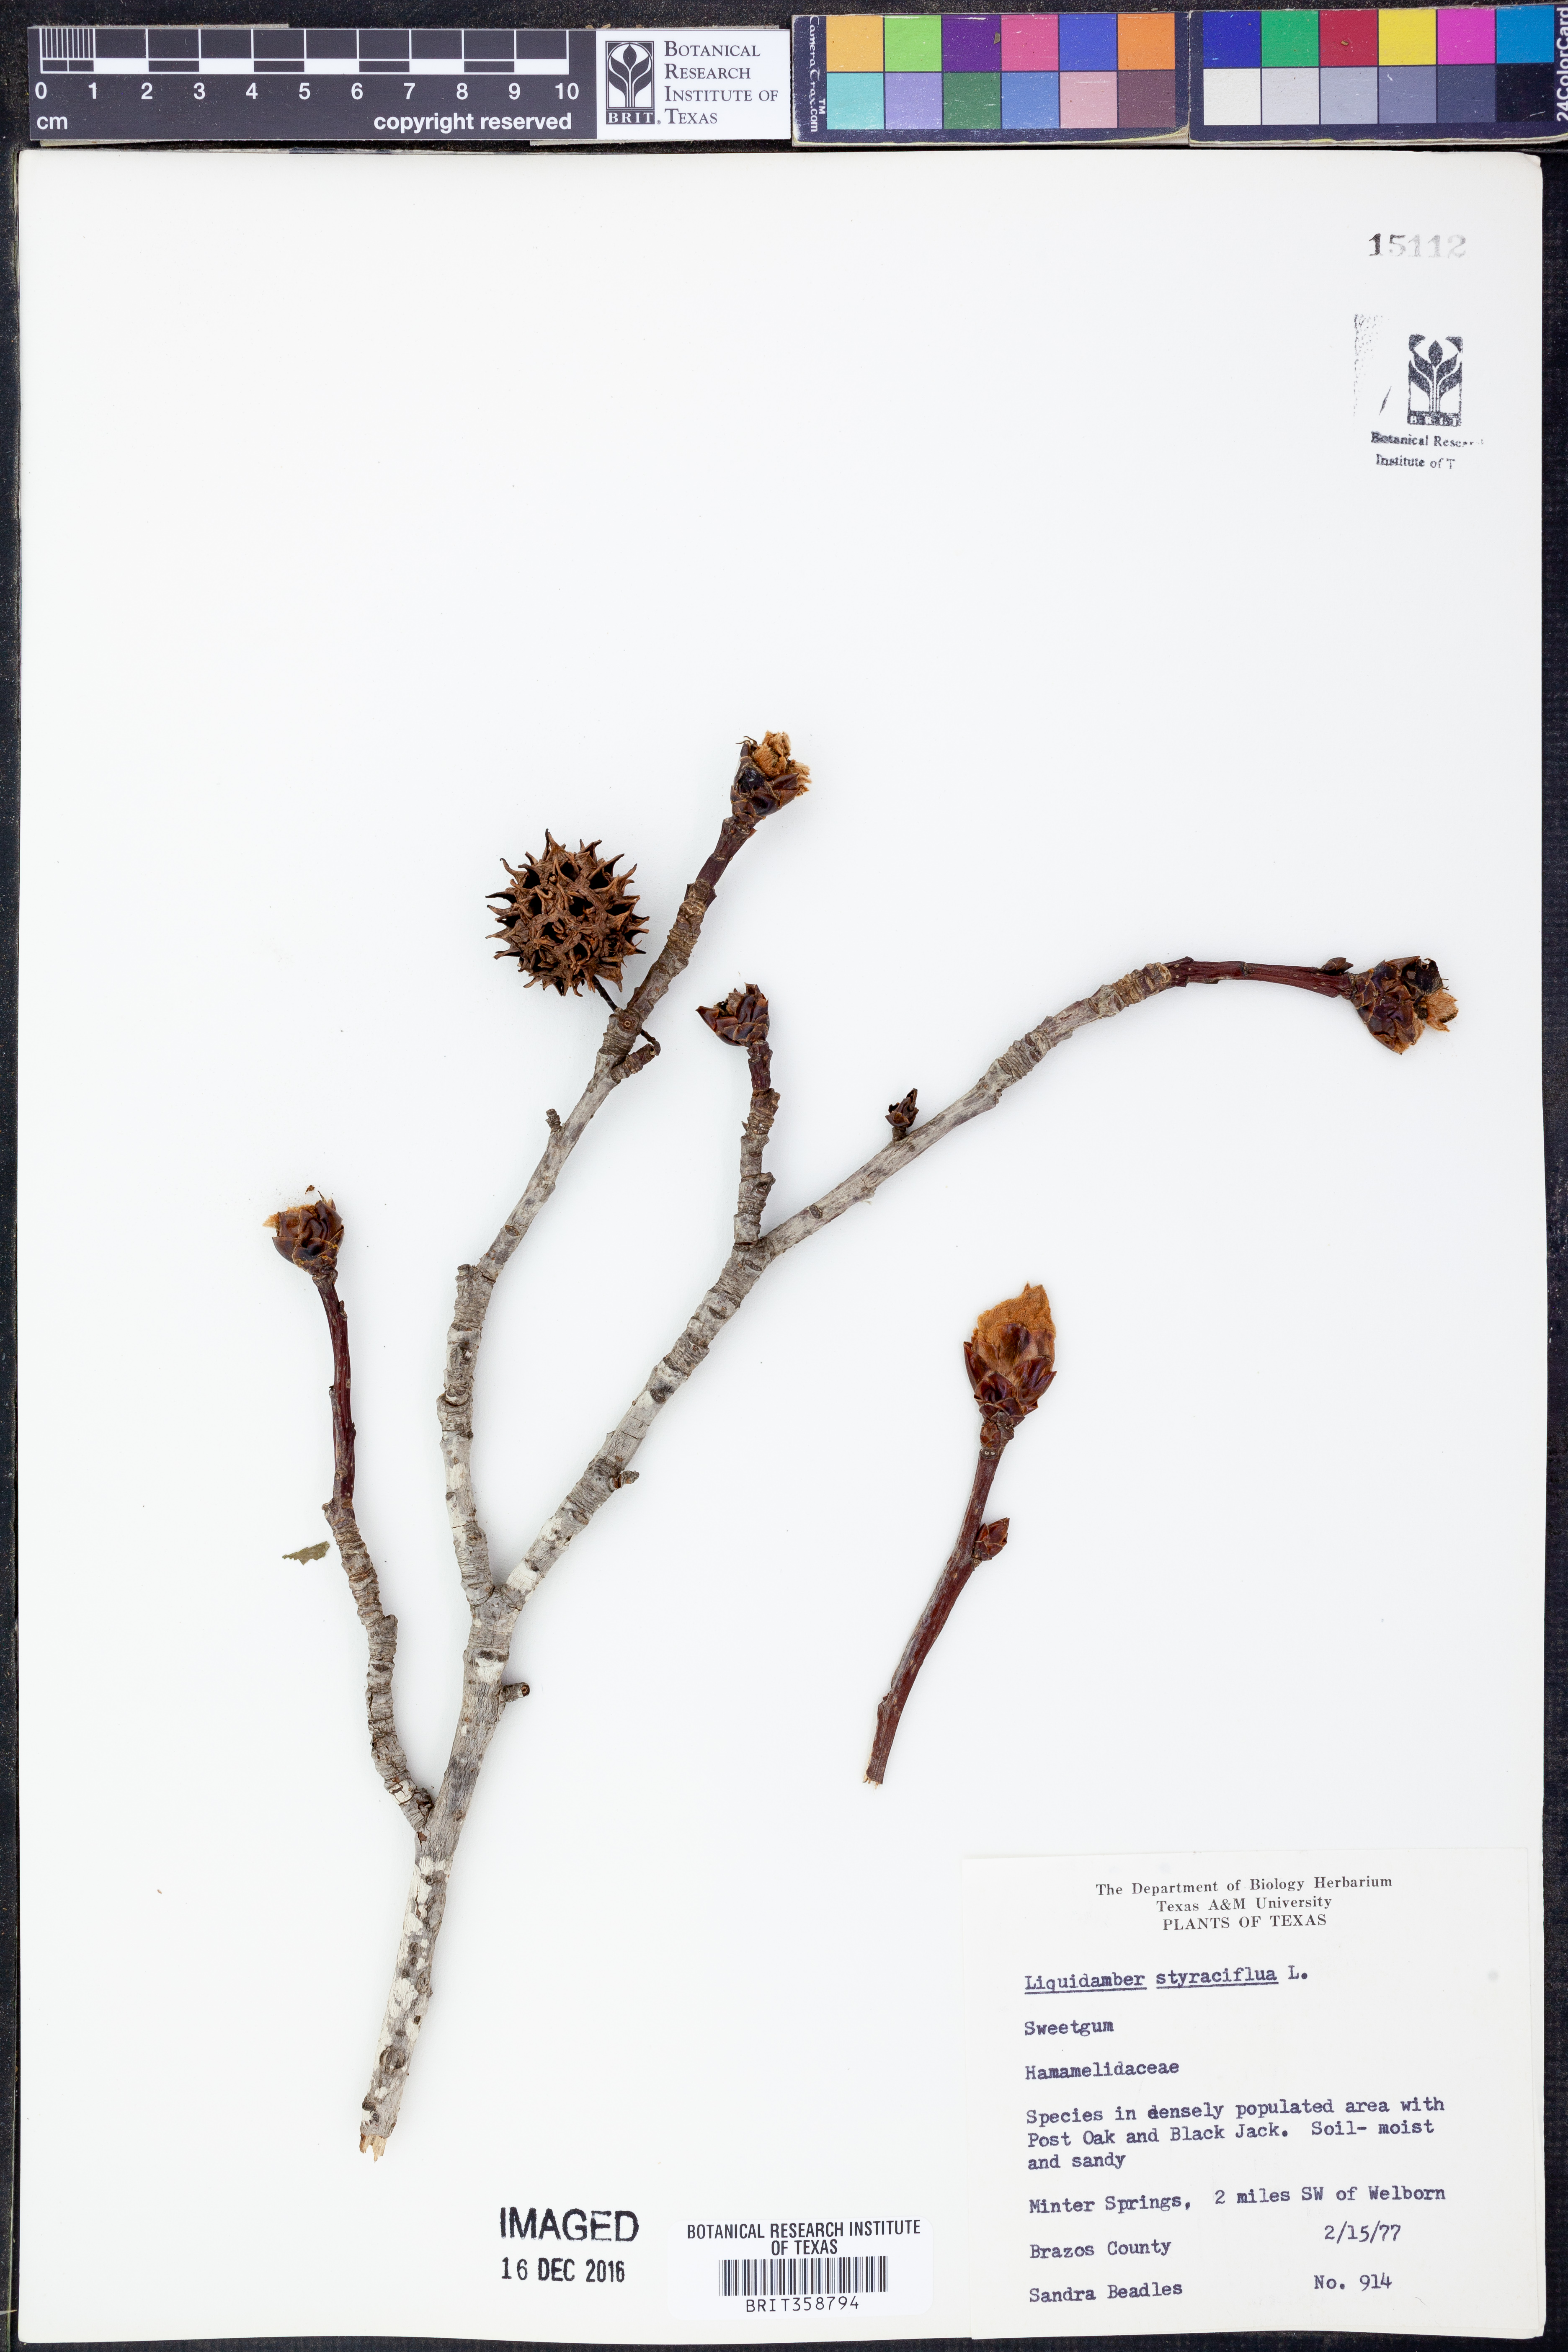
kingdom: Plantae
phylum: Tracheophyta
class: Magnoliopsida
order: Saxifragales
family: Altingiaceae
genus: Liquidambar
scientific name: Liquidambar styraciflua
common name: Sweet gum
